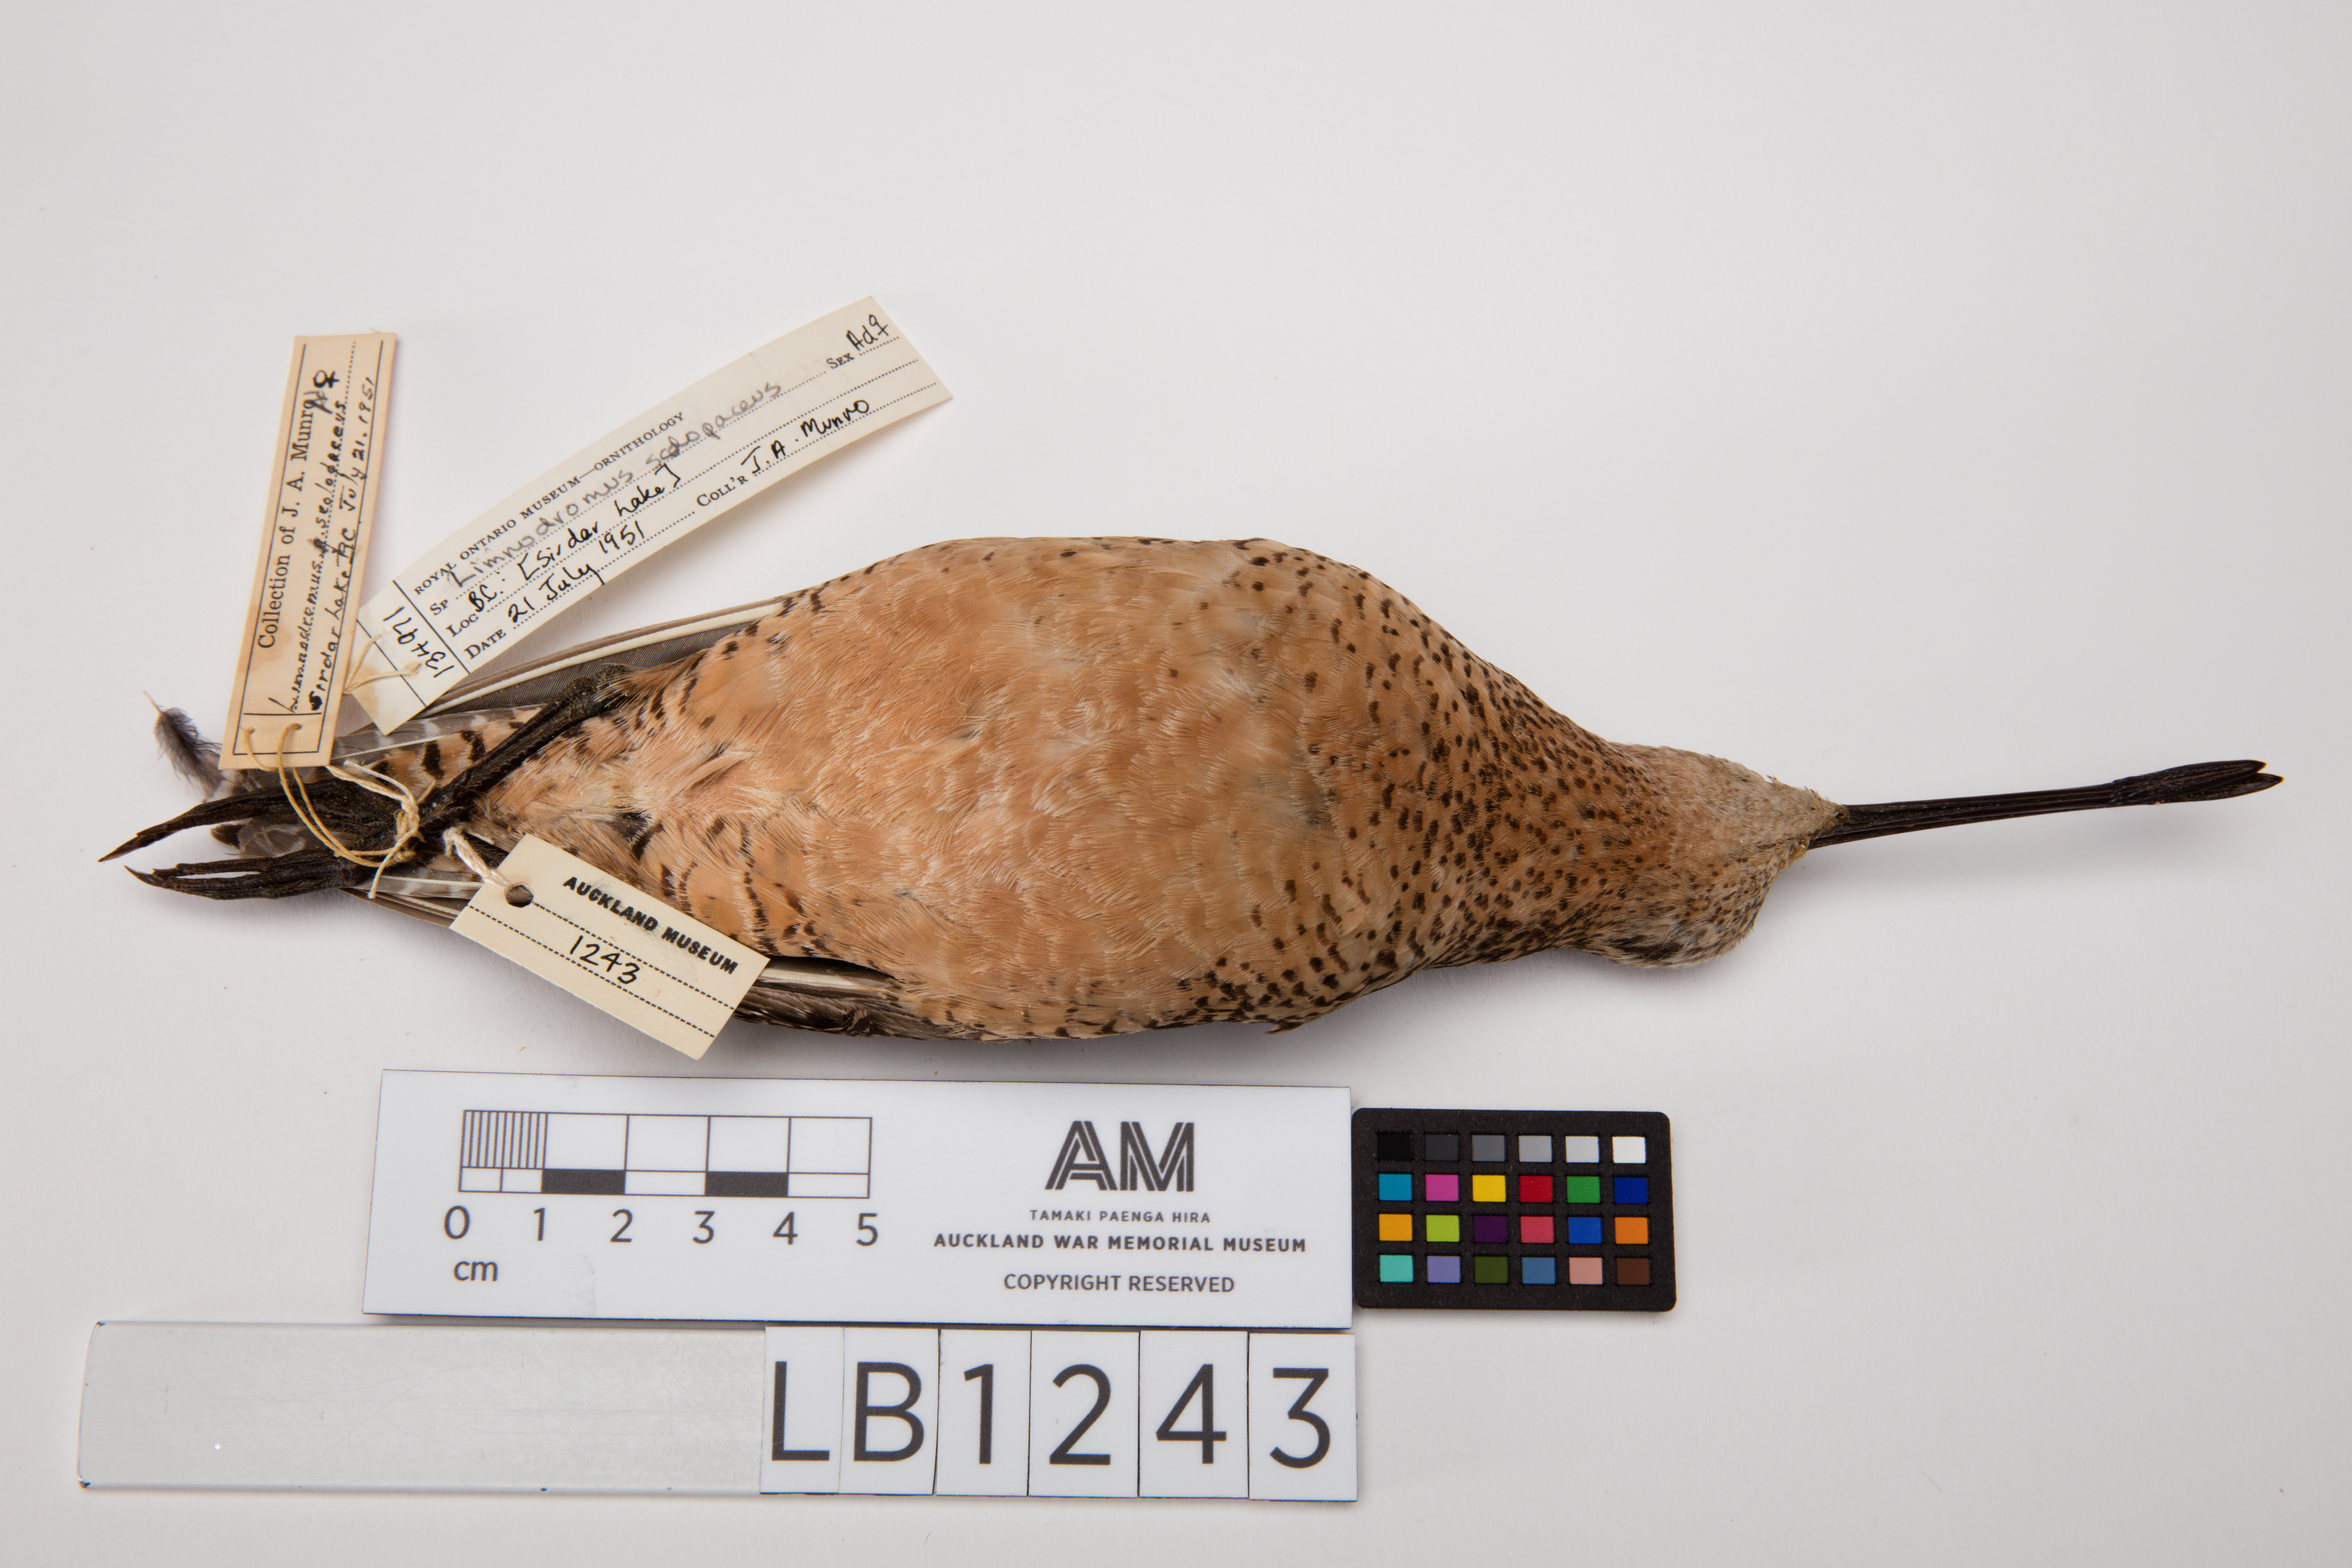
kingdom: Animalia
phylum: Chordata
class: Aves
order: Charadriiformes
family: Scolopacidae
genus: Limnodromus
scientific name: Limnodromus scolopaceus
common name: Long-billed dowitcher
